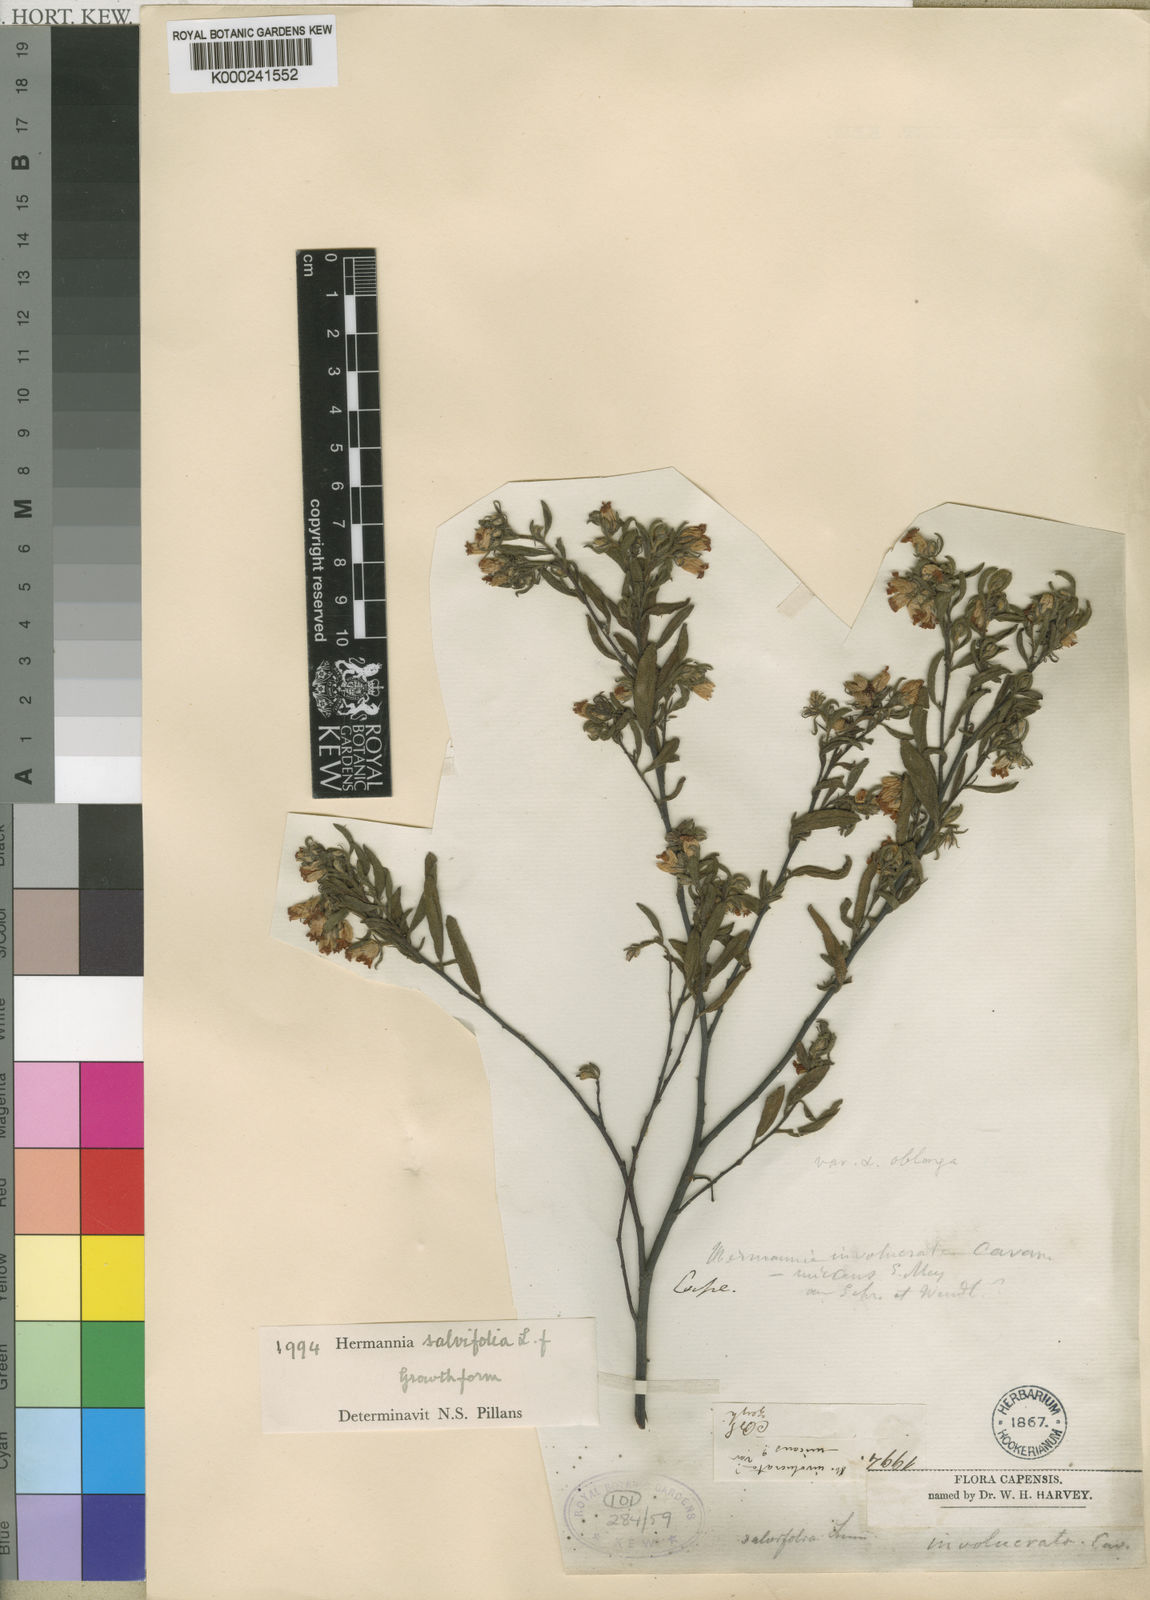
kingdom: Plantae
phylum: Tracheophyta
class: Magnoliopsida
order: Malvales
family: Malvaceae
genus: Hermannia
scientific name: Hermannia salviifolia
